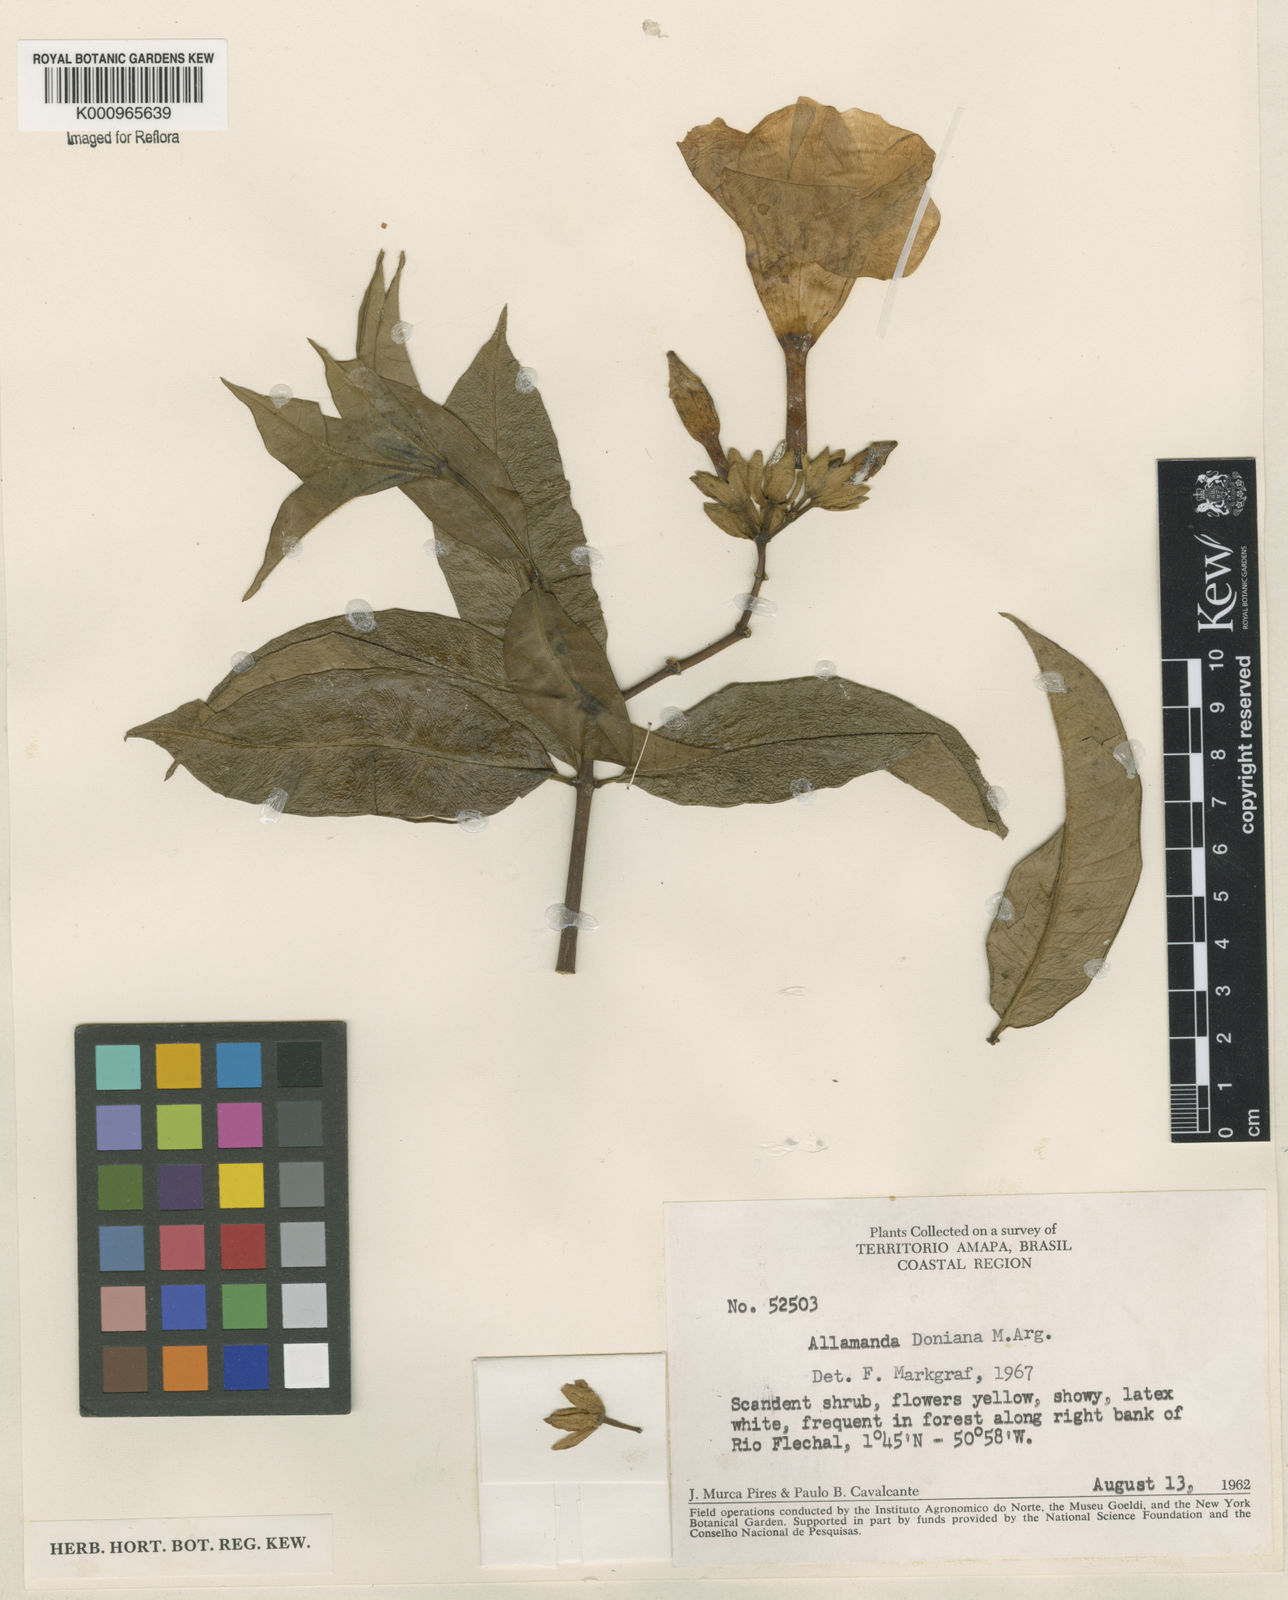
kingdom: Plantae
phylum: Tracheophyta
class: Magnoliopsida
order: Gentianales
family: Apocynaceae
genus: Allamanda
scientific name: Allamanda
